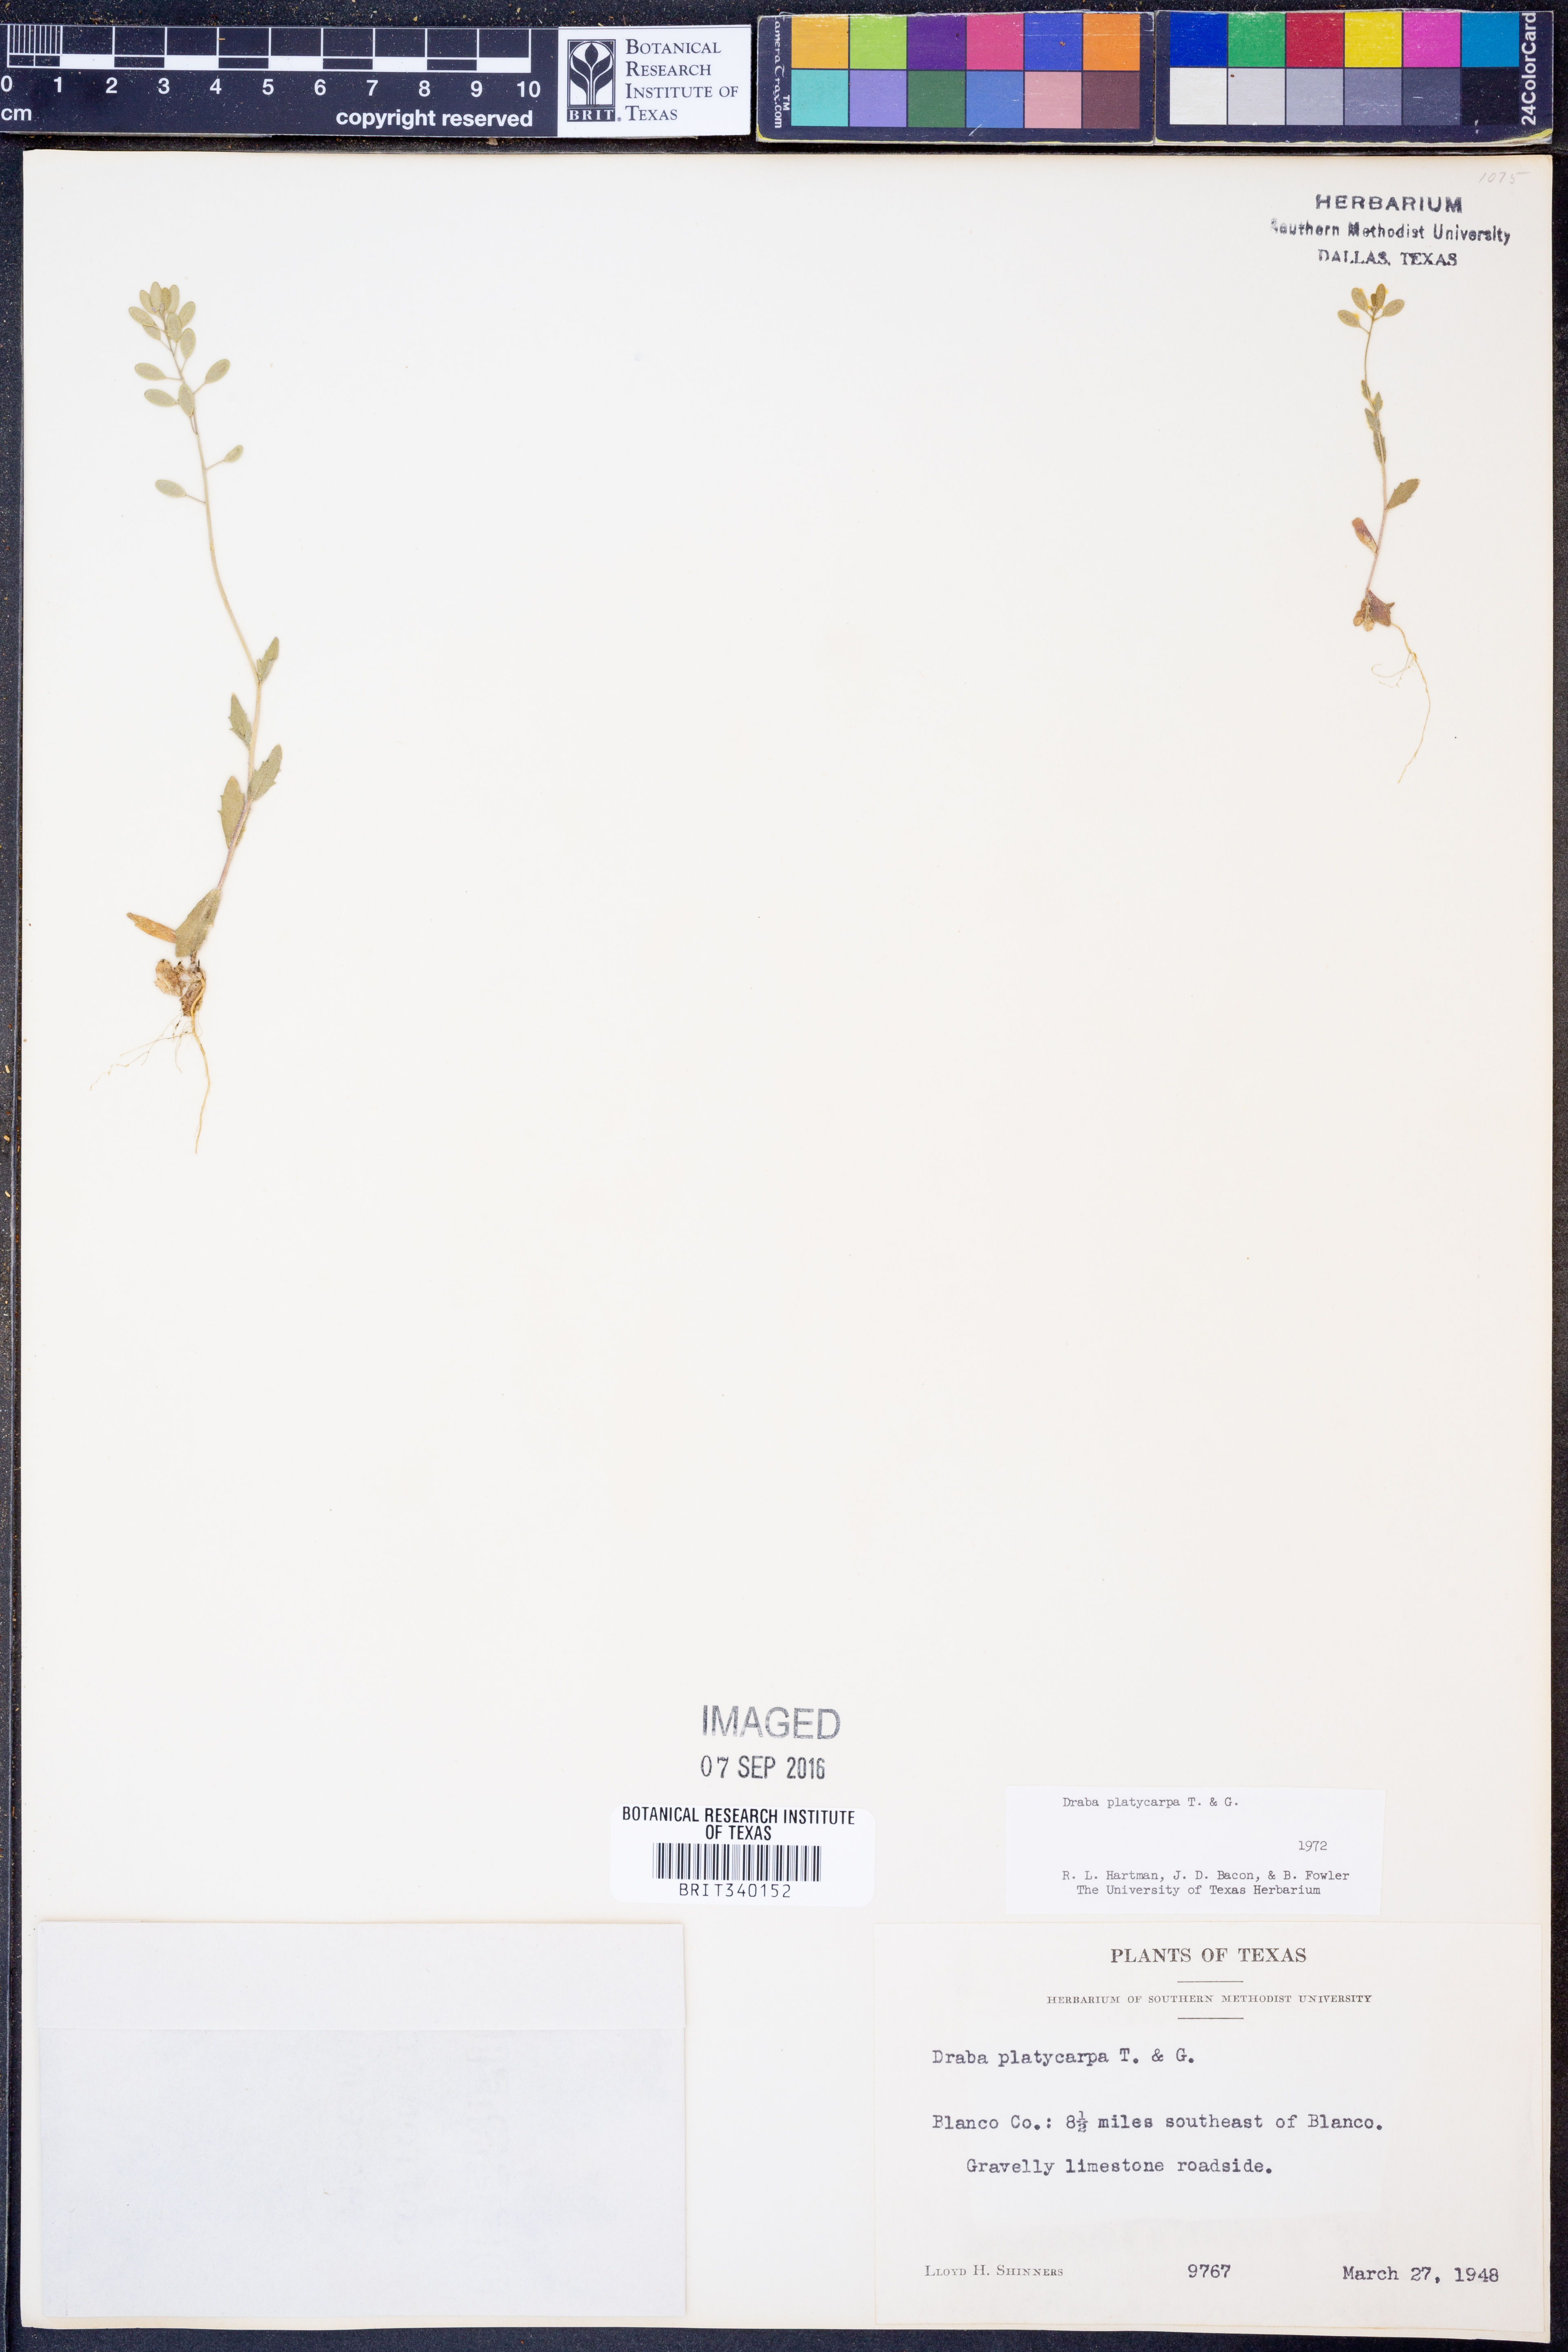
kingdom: Plantae
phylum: Tracheophyta
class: Magnoliopsida
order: Brassicales
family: Brassicaceae
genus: Tomostima
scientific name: Tomostima platycarpa
